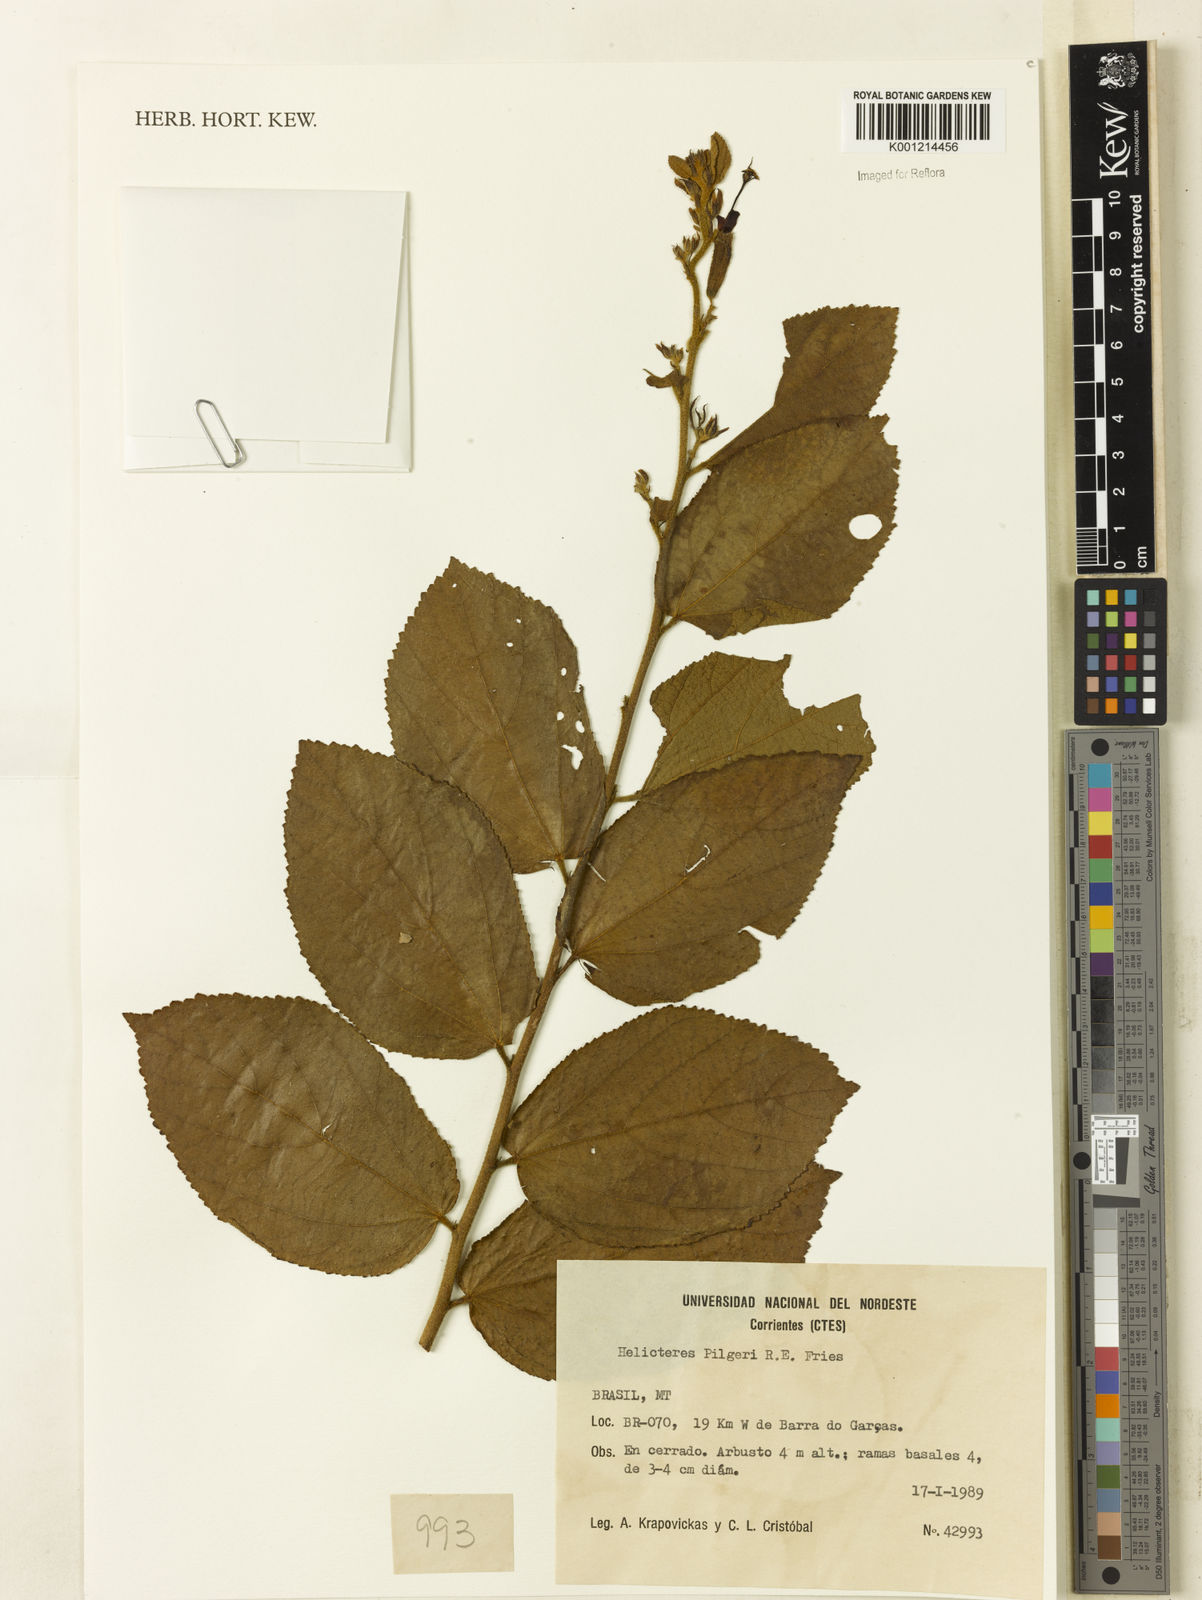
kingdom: Plantae
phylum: Tracheophyta
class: Magnoliopsida
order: Malvales
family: Malvaceae
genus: Helicteres
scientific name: Helicteres pilgeri
